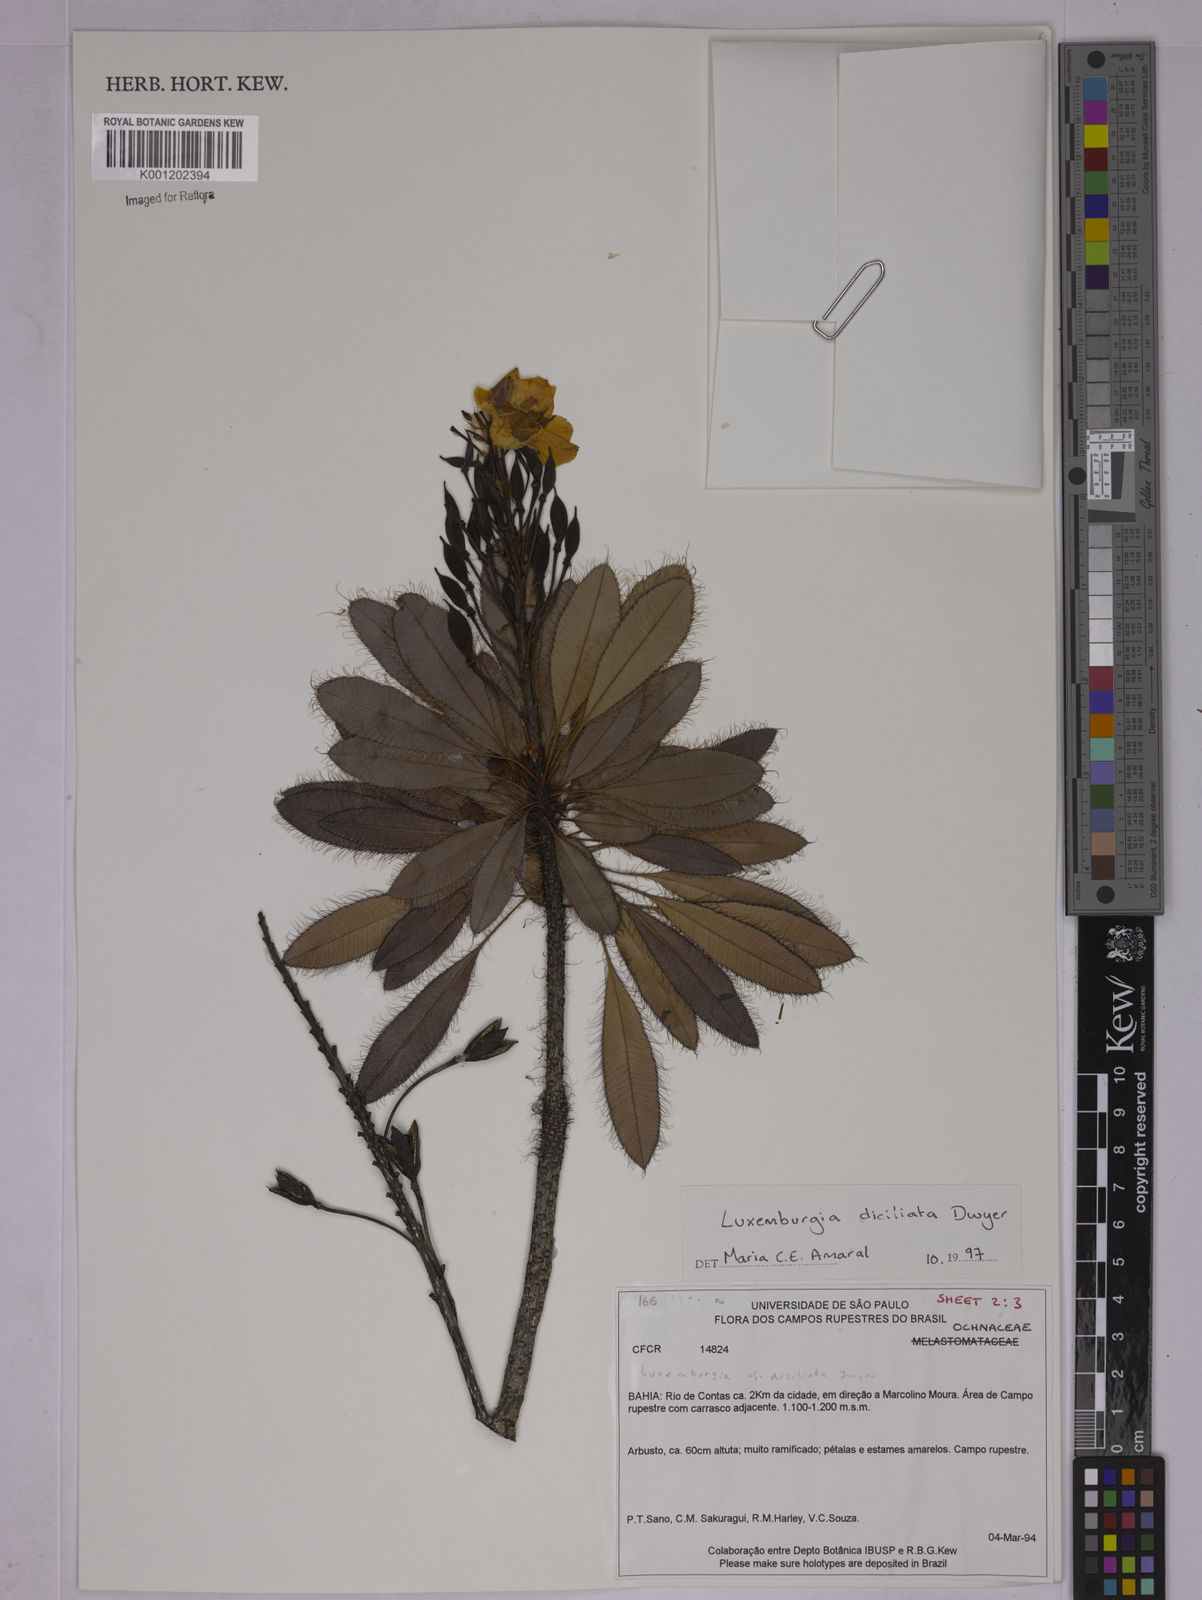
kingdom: Plantae
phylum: Tracheophyta
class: Magnoliopsida
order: Malpighiales
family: Ochnaceae
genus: Luxemburgia
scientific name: Luxemburgia diciliata
